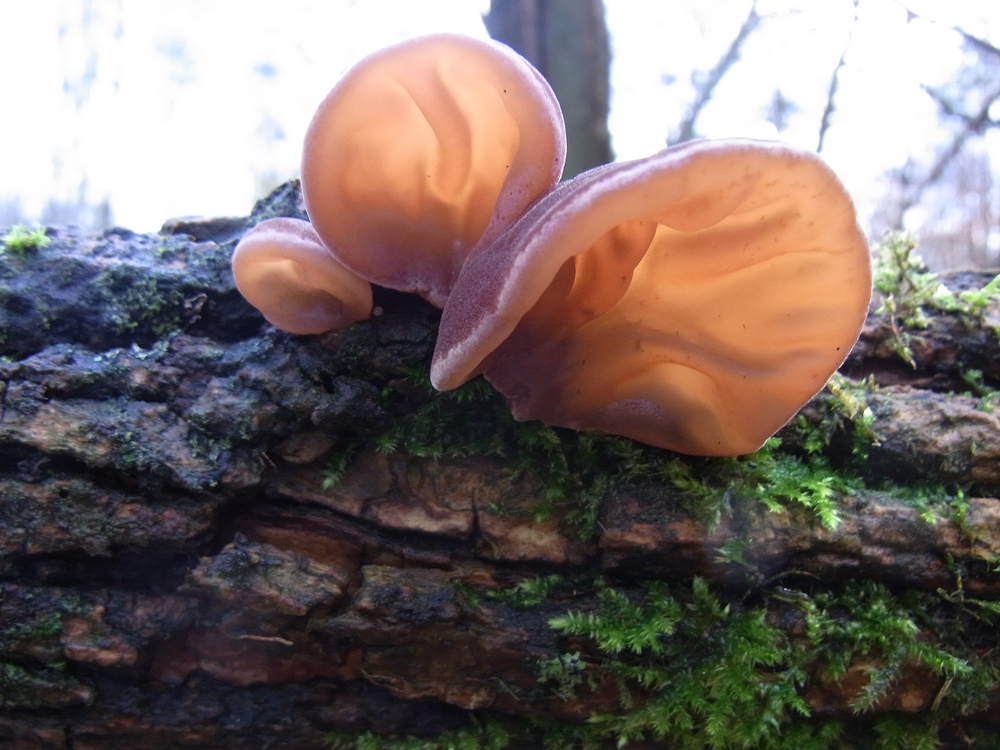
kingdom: Fungi
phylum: Basidiomycota
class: Agaricomycetes
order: Auriculariales
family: Auriculariaceae
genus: Auricularia
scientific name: Auricularia auricula-judae
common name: Jelly ear
